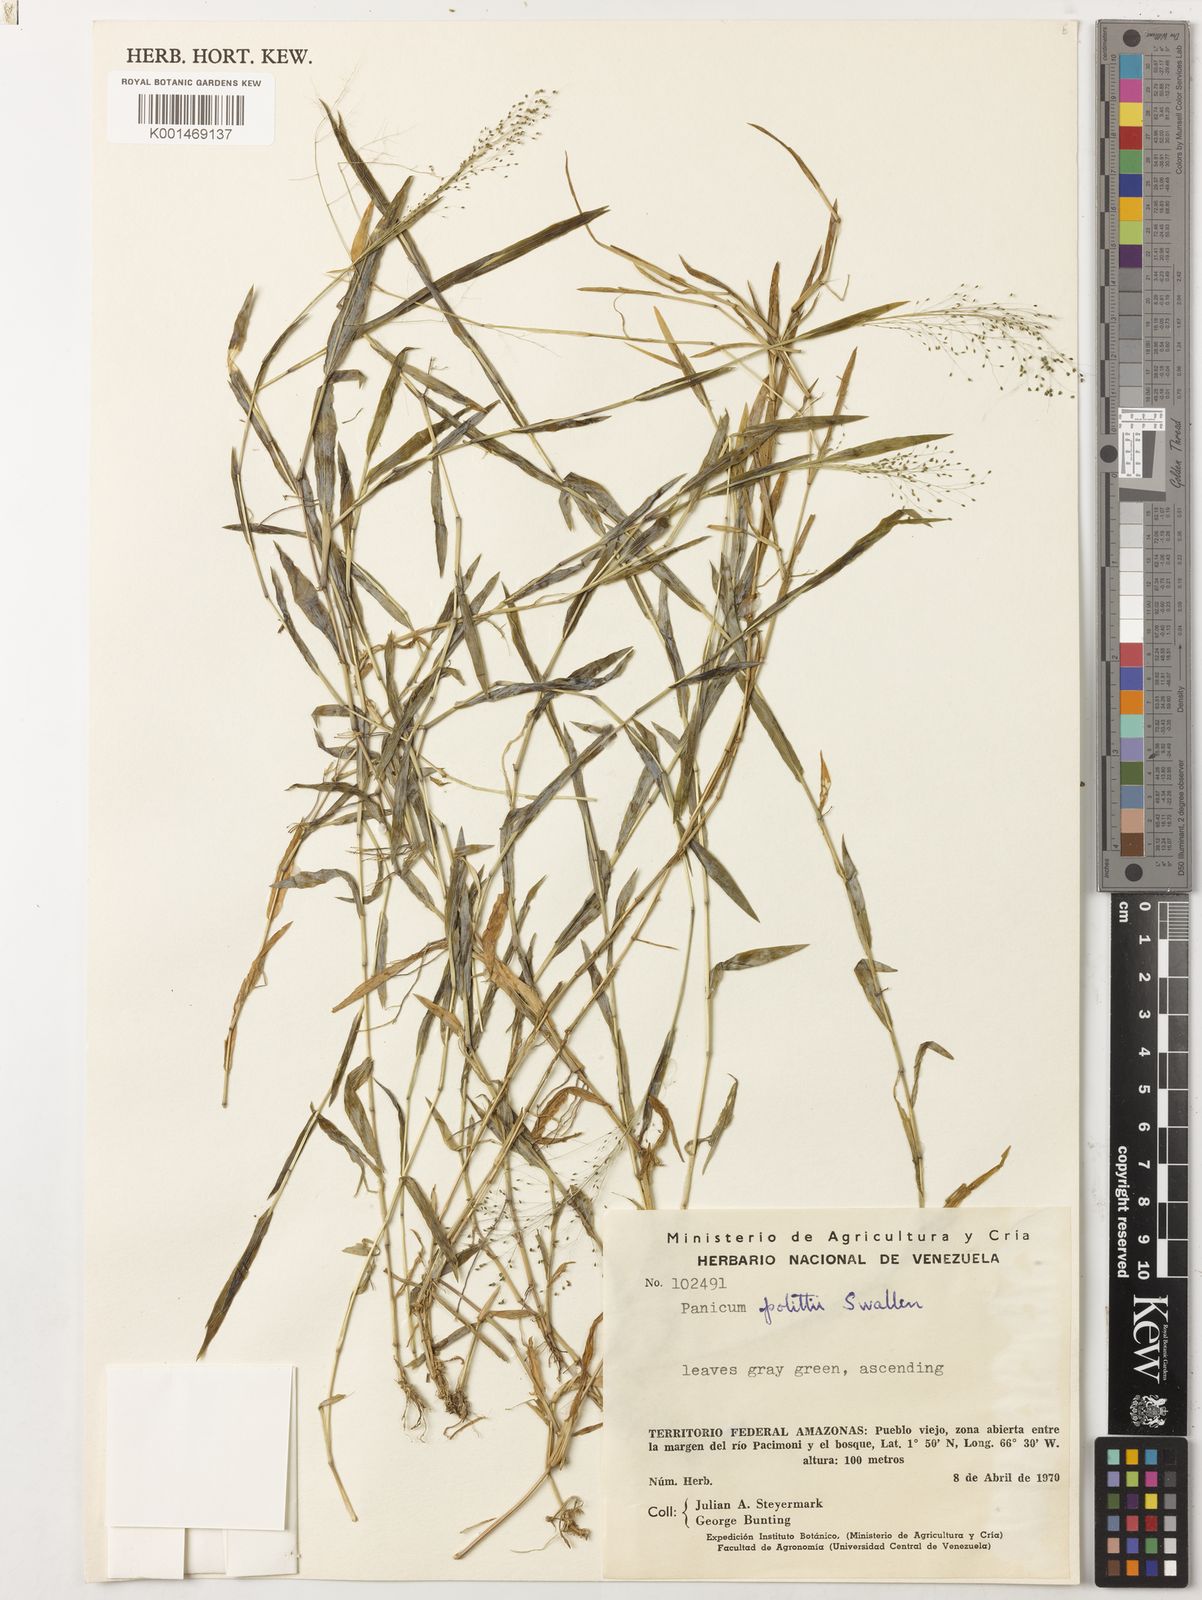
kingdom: Plantae
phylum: Tracheophyta
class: Liliopsida
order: Poales
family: Poaceae
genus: Trichanthecium
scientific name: Trichanthecium granuliferum
